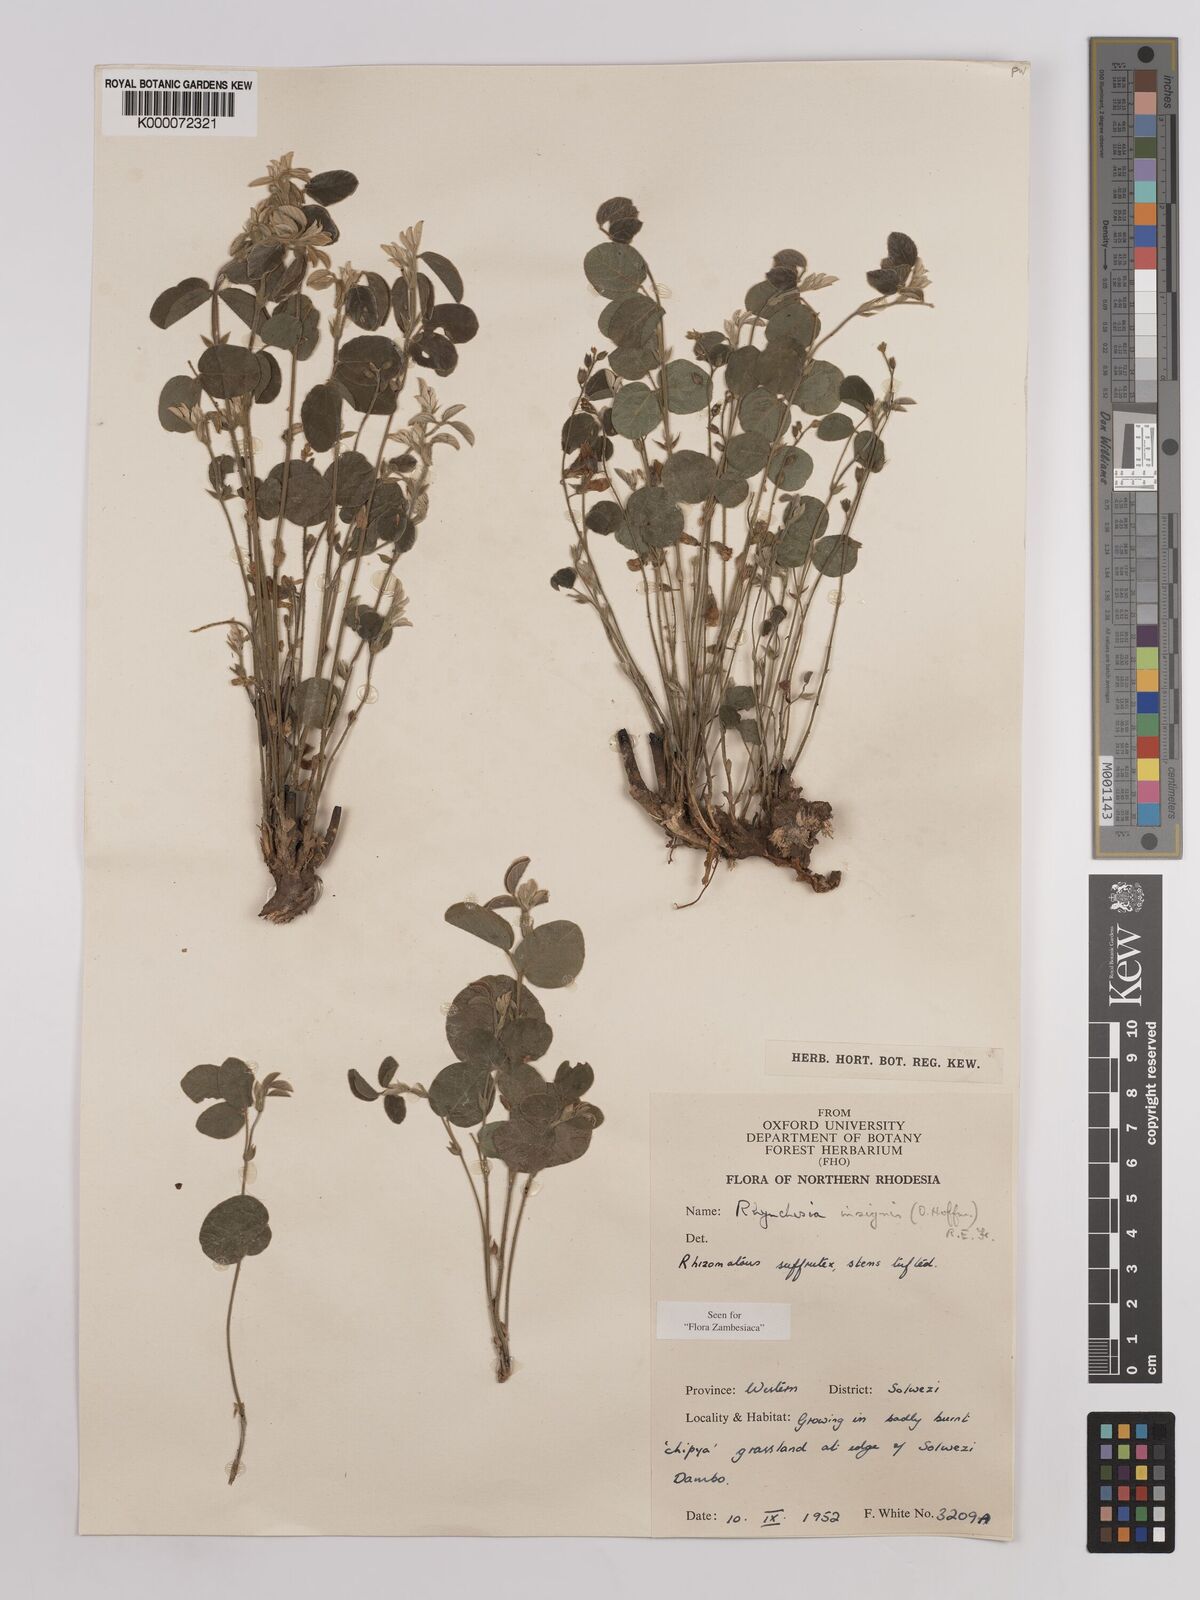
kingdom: Plantae
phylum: Tracheophyta
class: Magnoliopsida
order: Fabales
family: Fabaceae
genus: Rhynchosia
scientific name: Rhynchosia insignis
